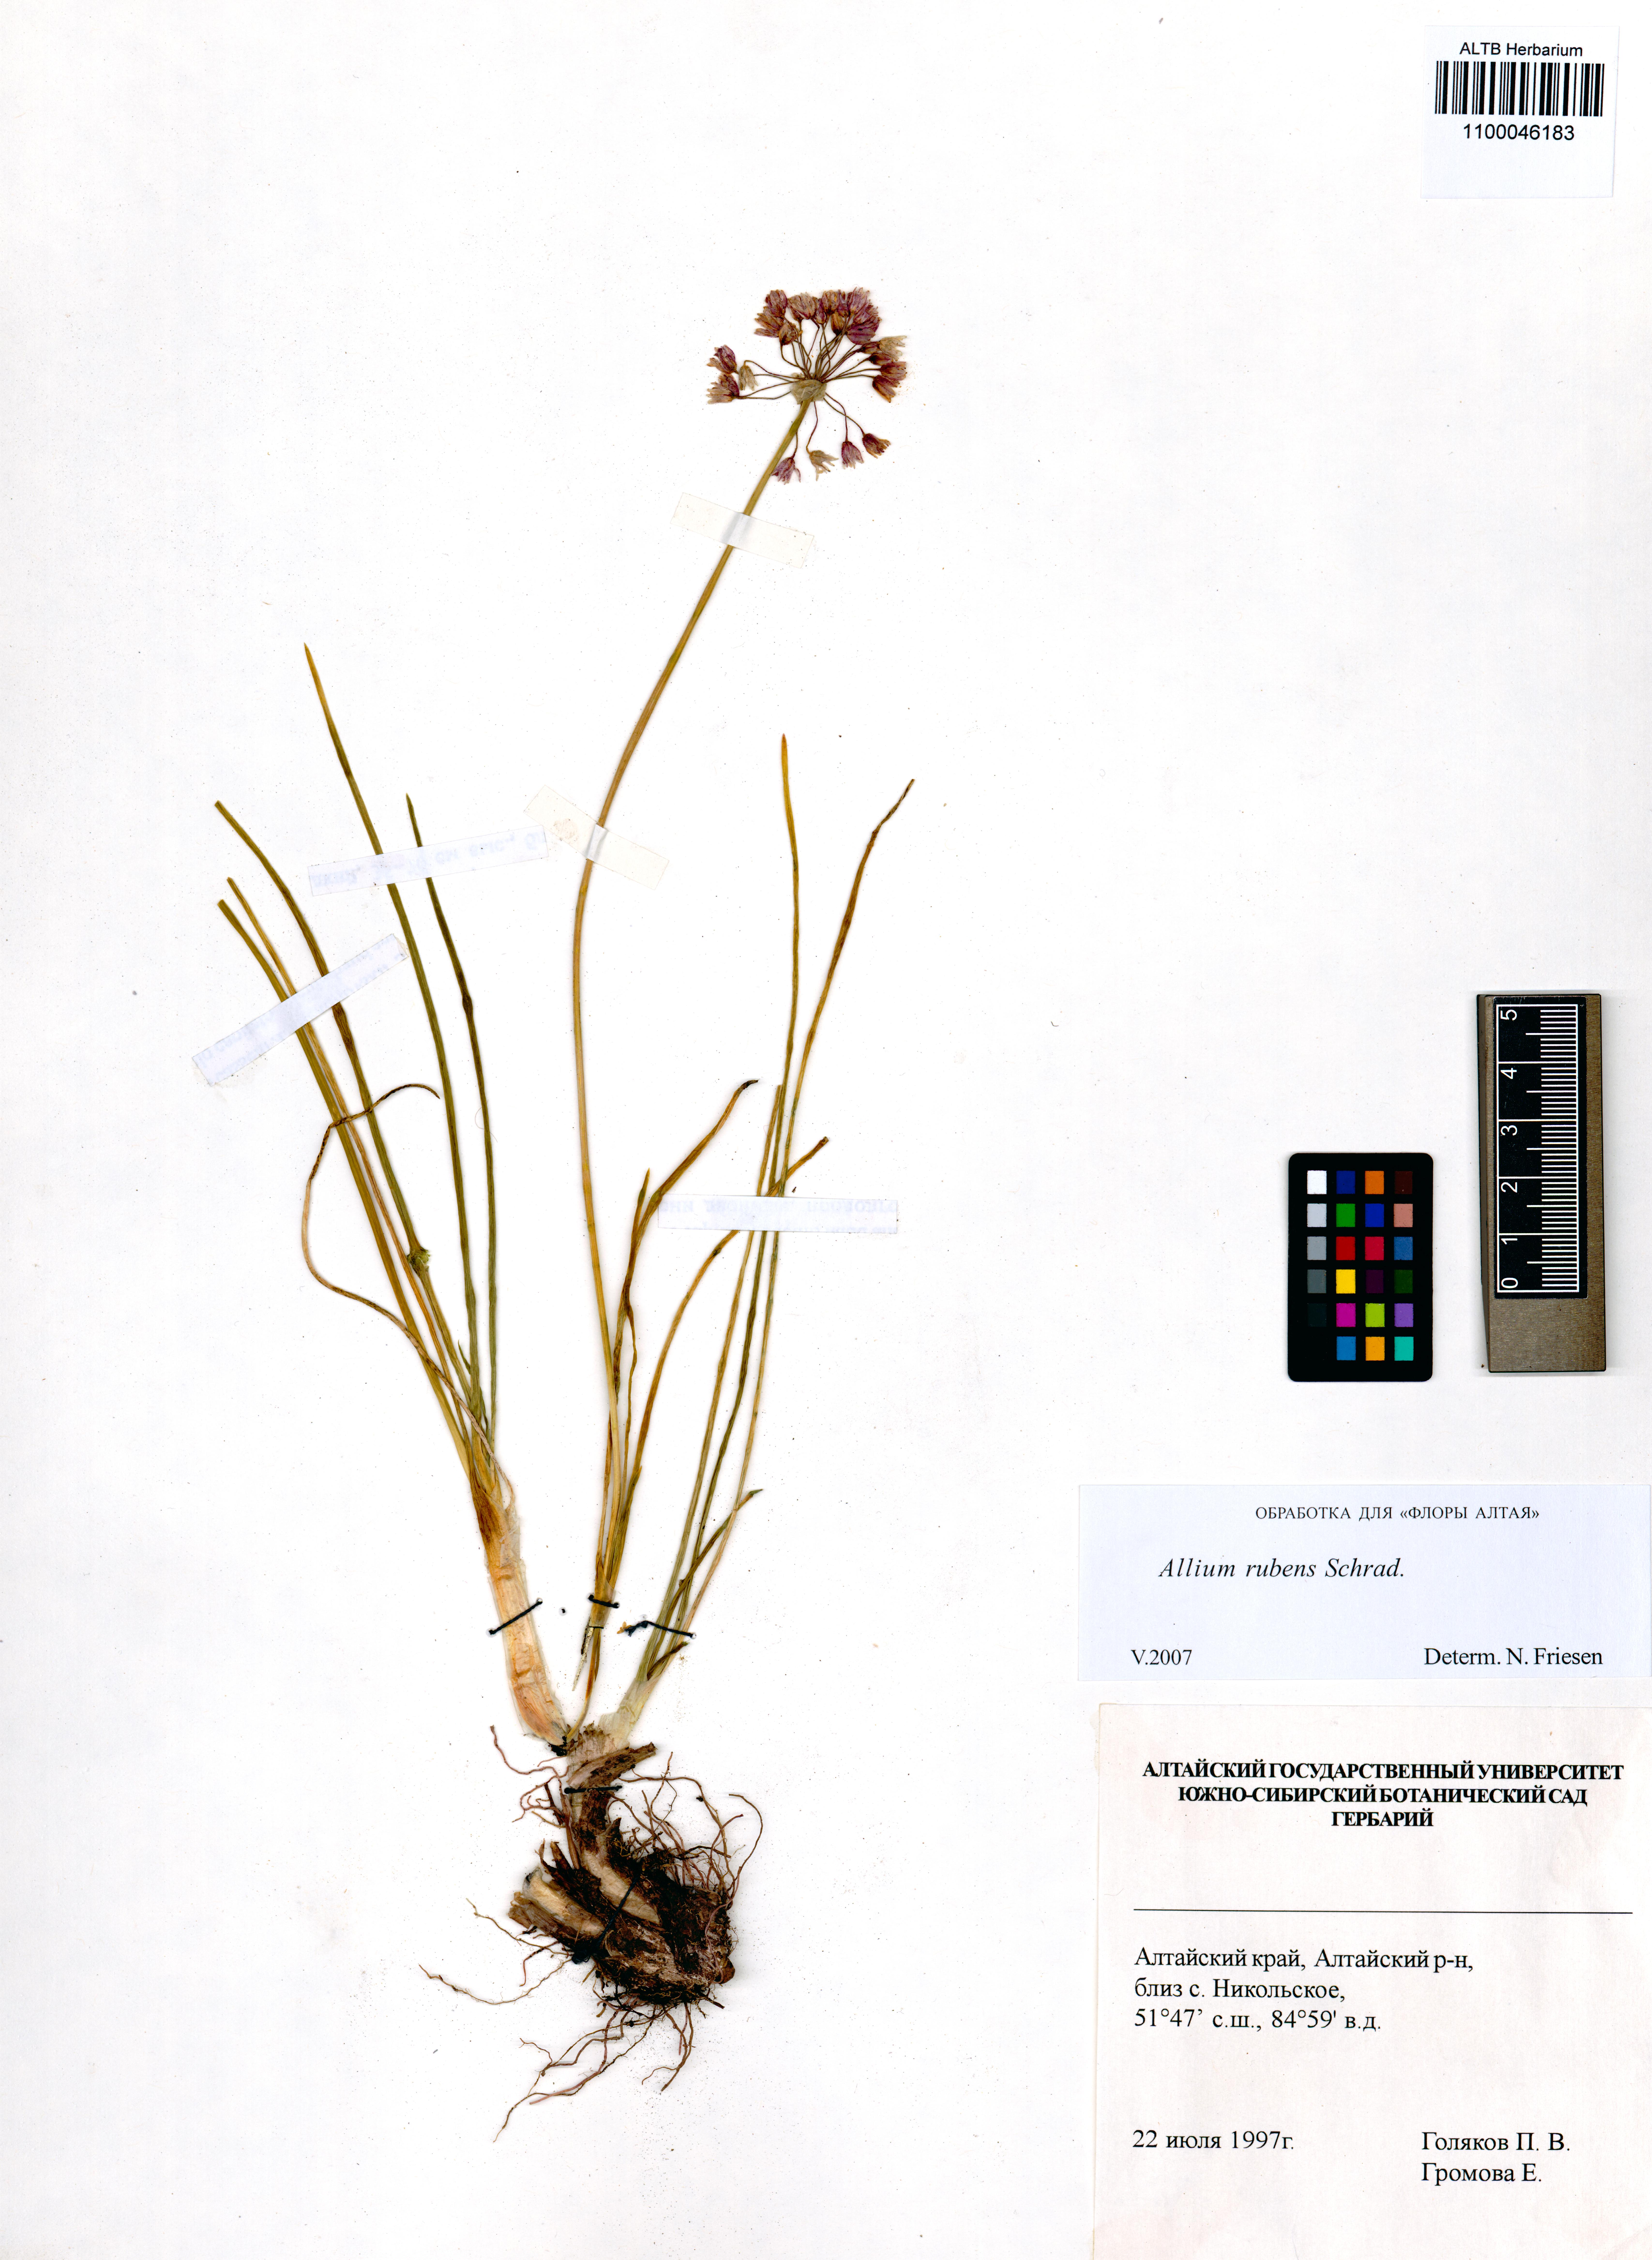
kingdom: Plantae
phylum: Tracheophyta
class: Liliopsida
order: Asparagales
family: Amaryllidaceae
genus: Allium
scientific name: Allium rubens
